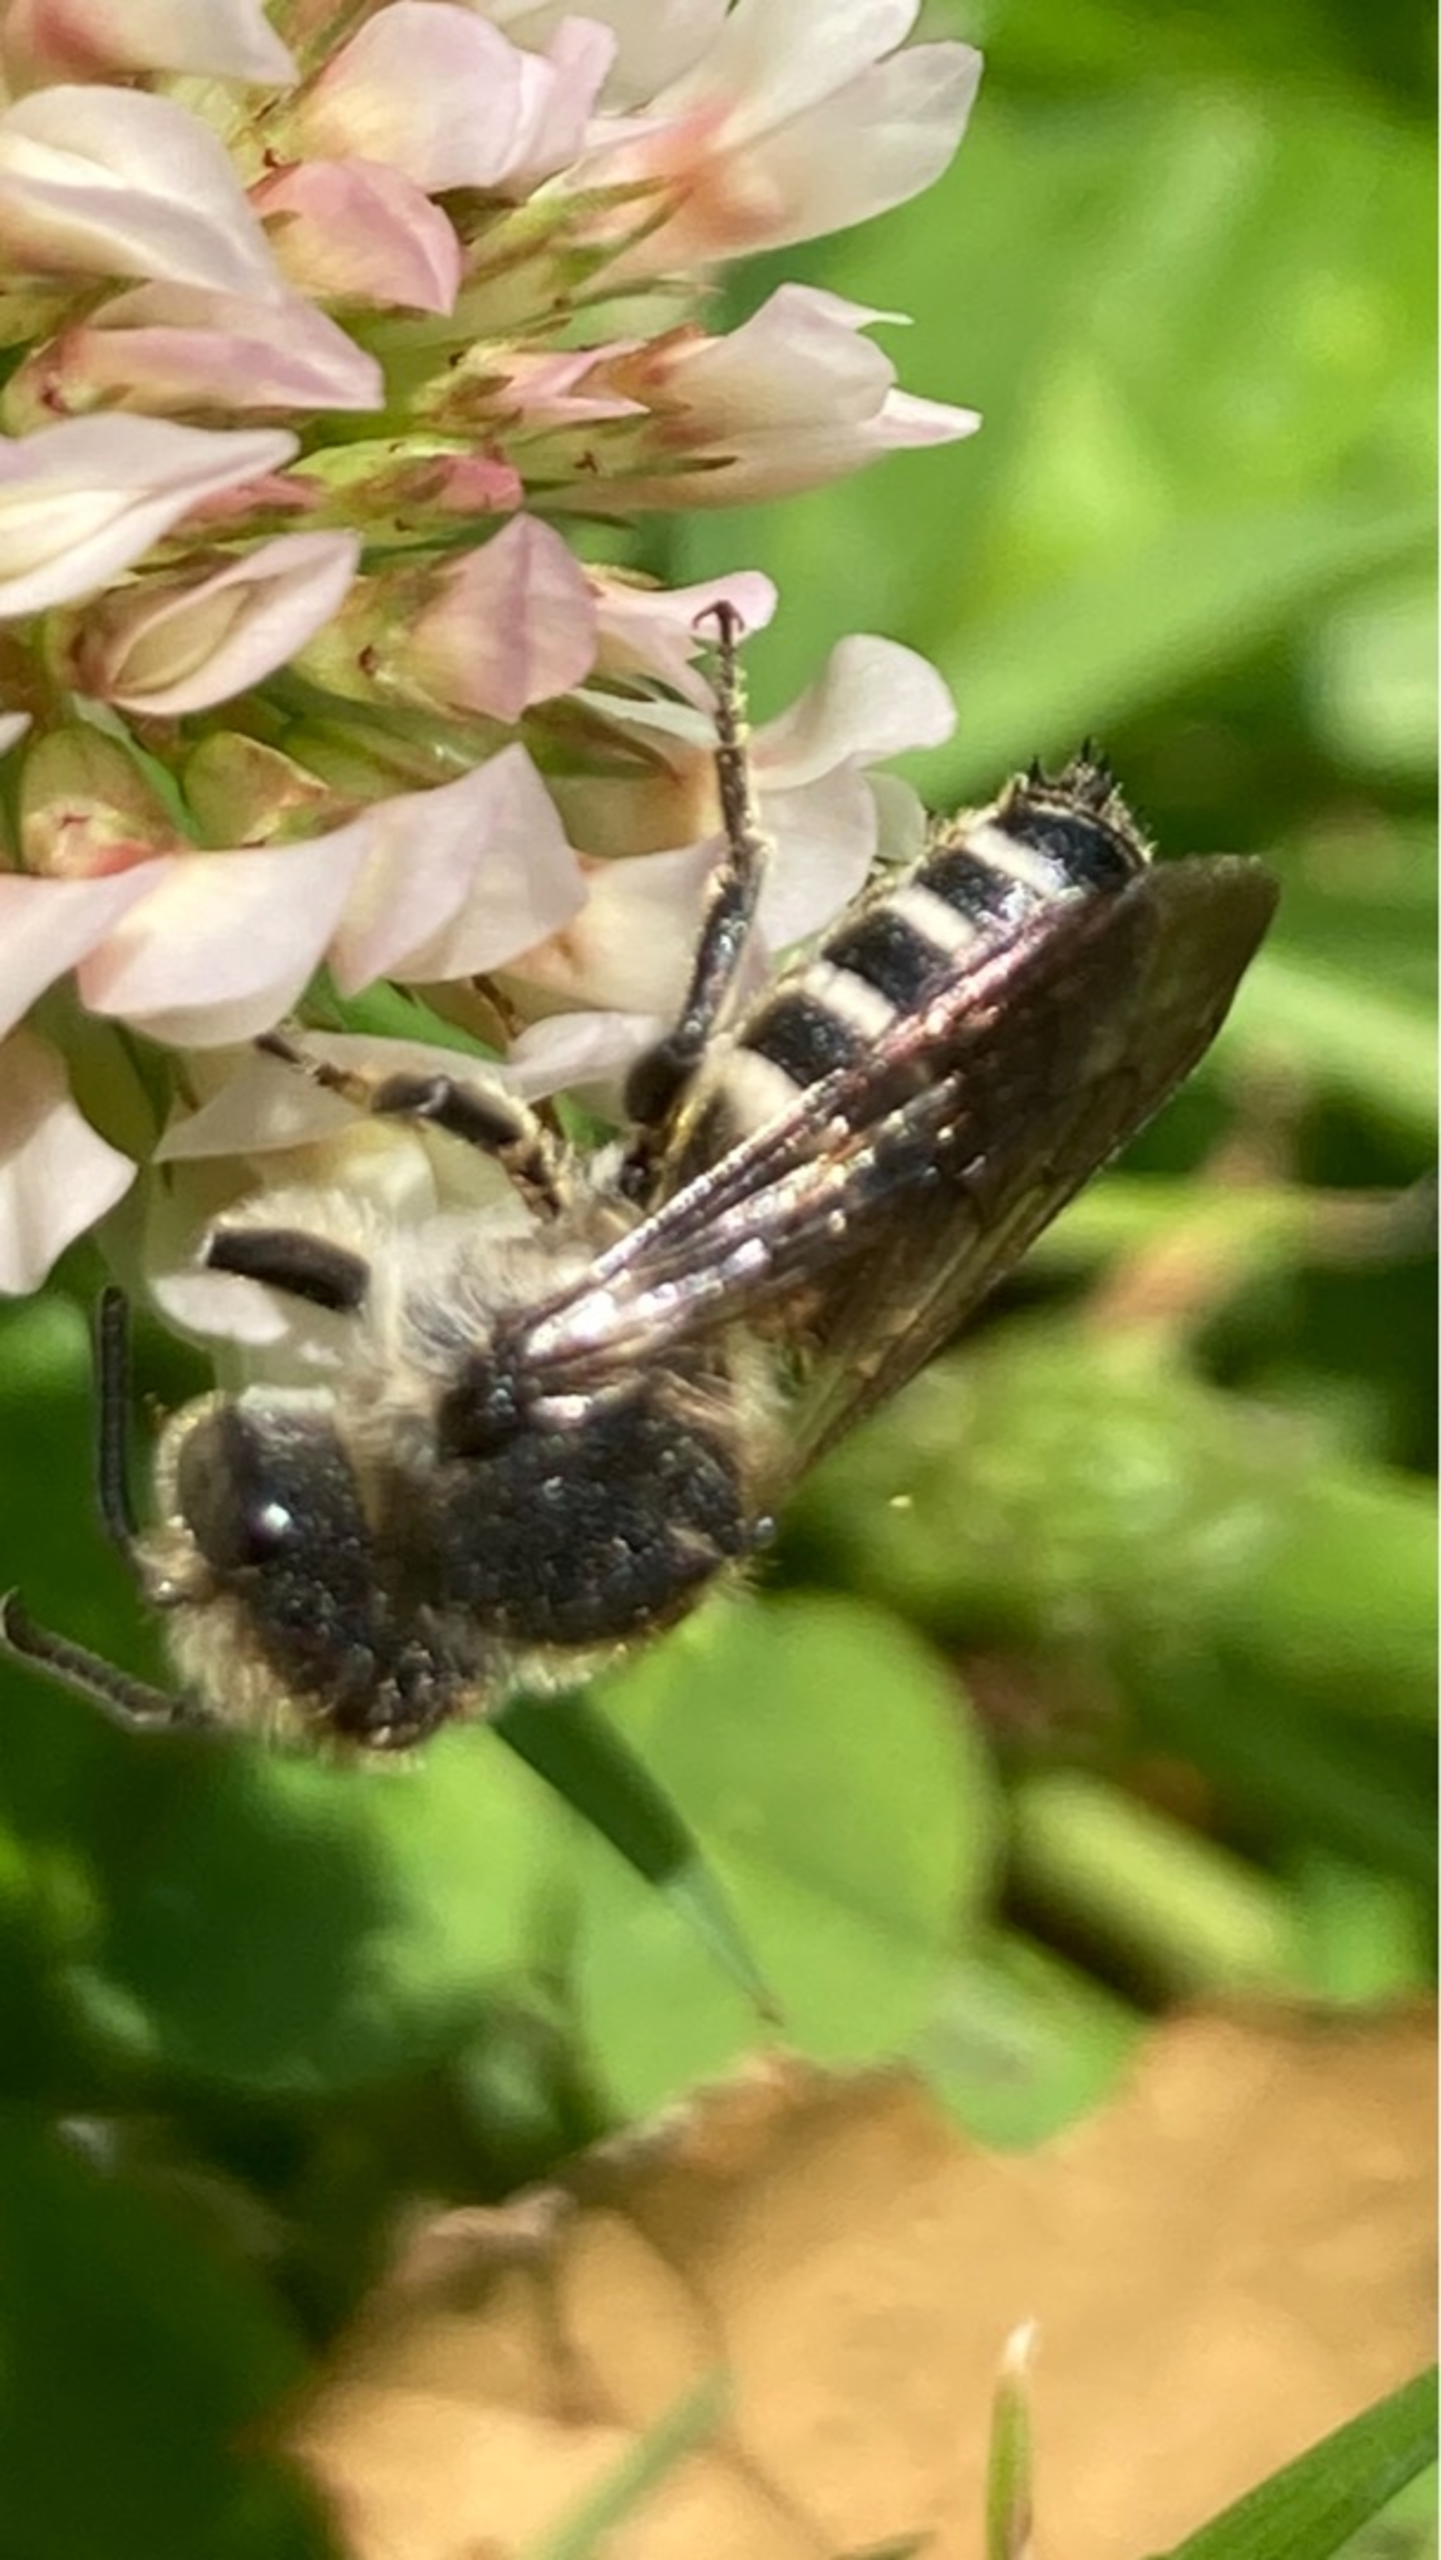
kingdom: Animalia
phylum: Arthropoda
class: Insecta
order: Hymenoptera
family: Megachilidae
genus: Coelioxys
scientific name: Coelioxys
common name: Keglebier
